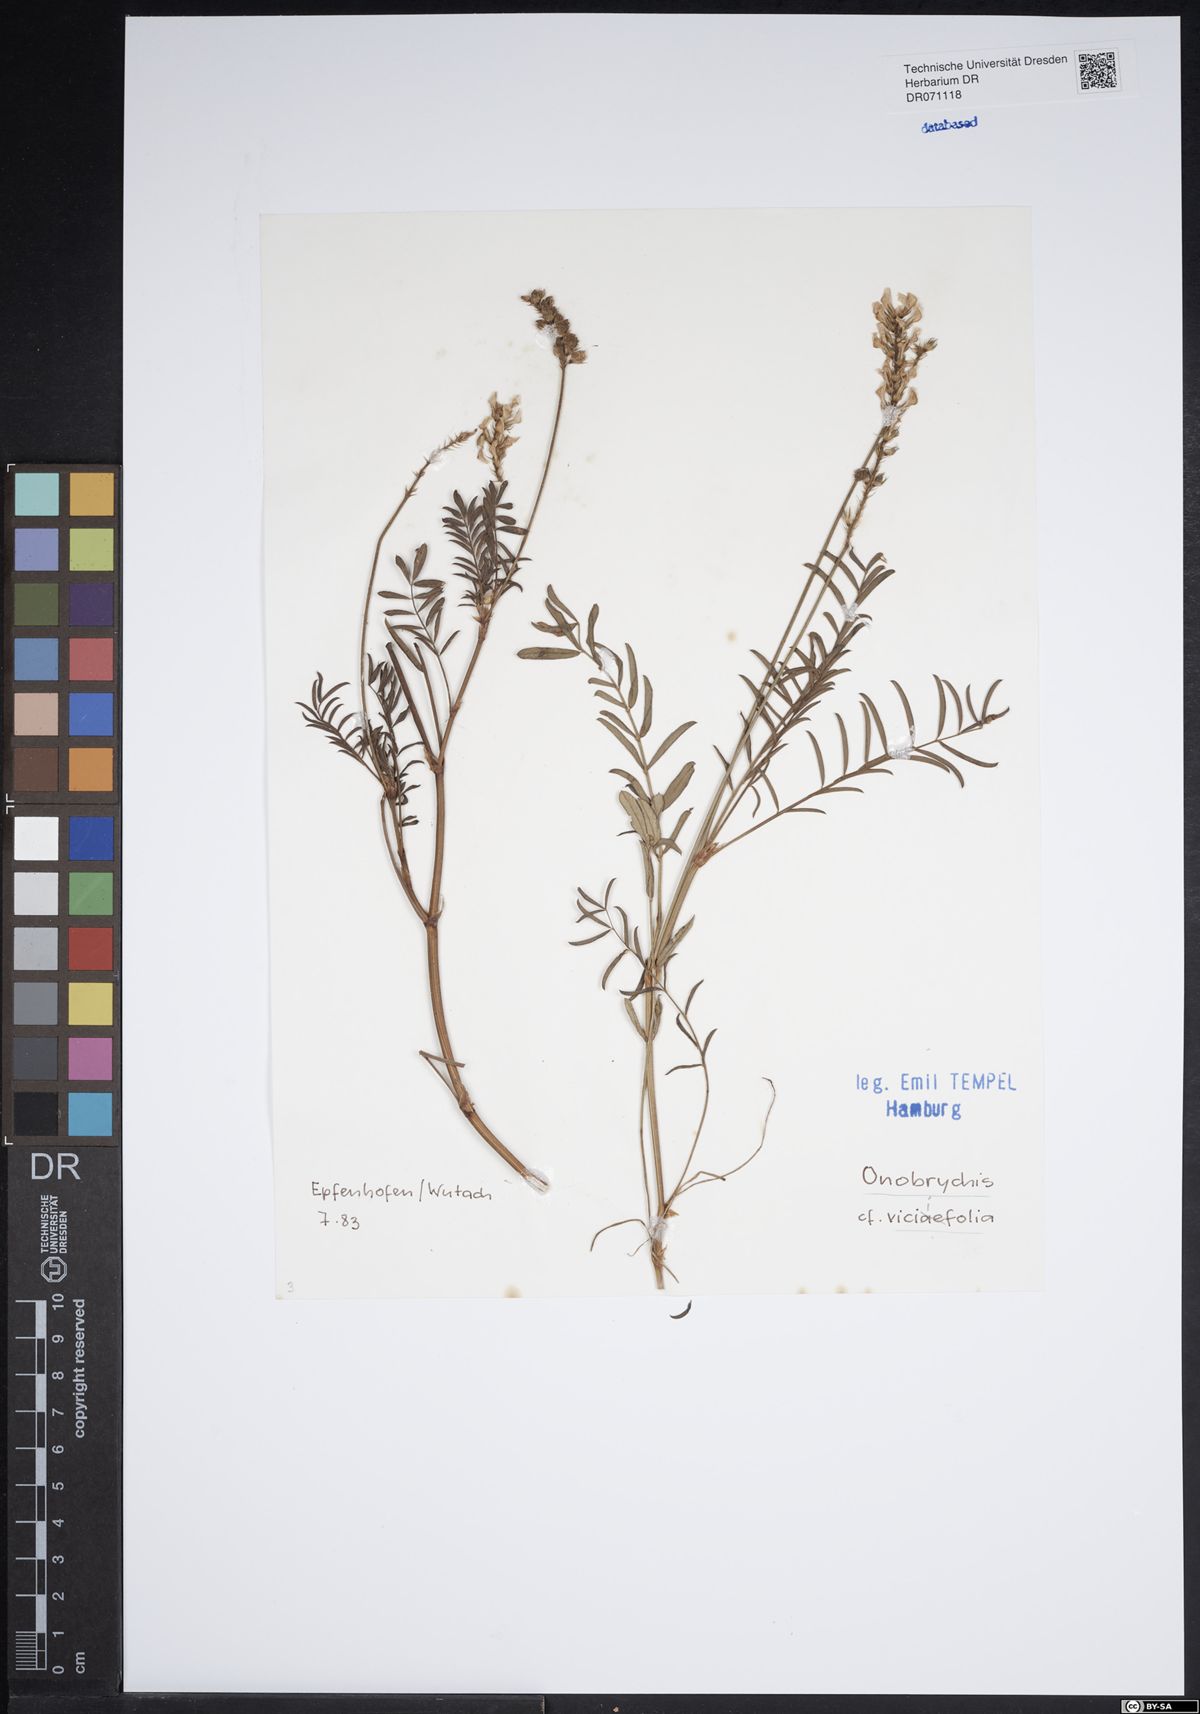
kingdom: Plantae
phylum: Tracheophyta
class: Magnoliopsida
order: Fabales
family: Fabaceae
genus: Onobrychis
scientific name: Onobrychis viciifolia
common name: Sainfoin
